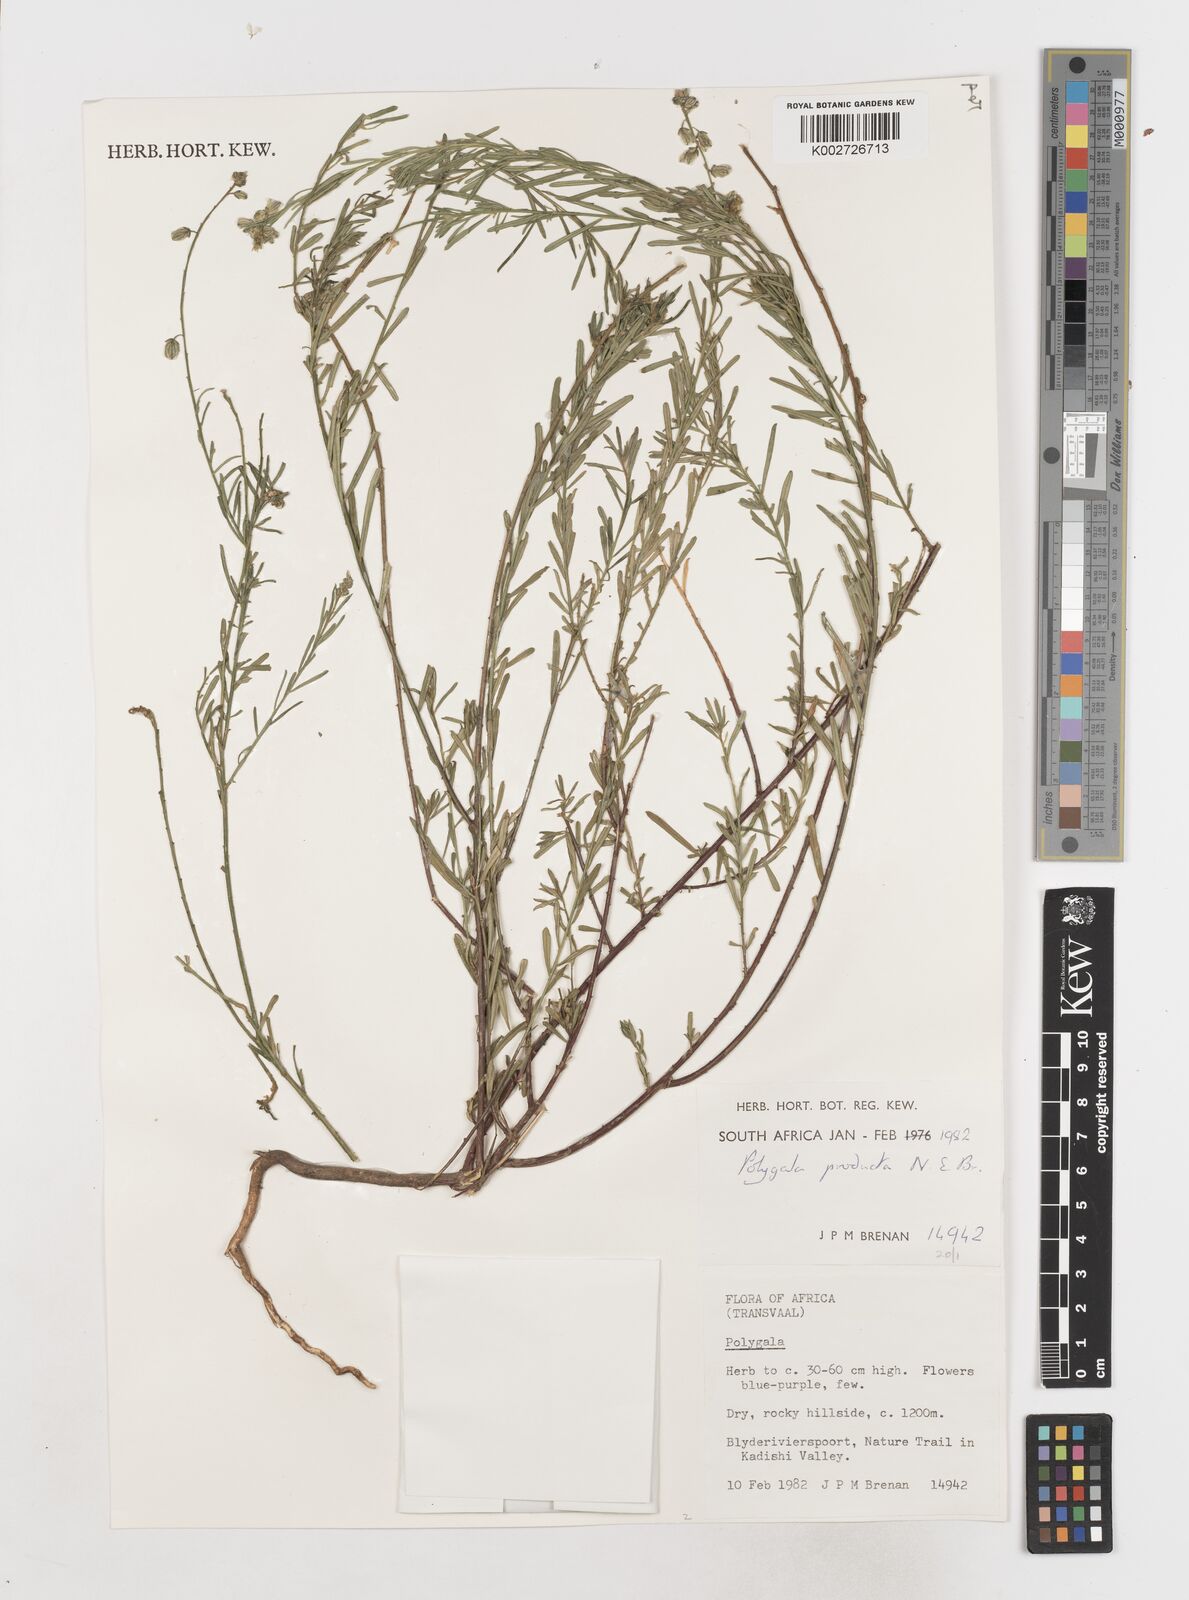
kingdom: Plantae
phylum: Tracheophyta
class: Magnoliopsida
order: Fabales
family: Polygalaceae
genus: Polygala
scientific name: Polygala producta
